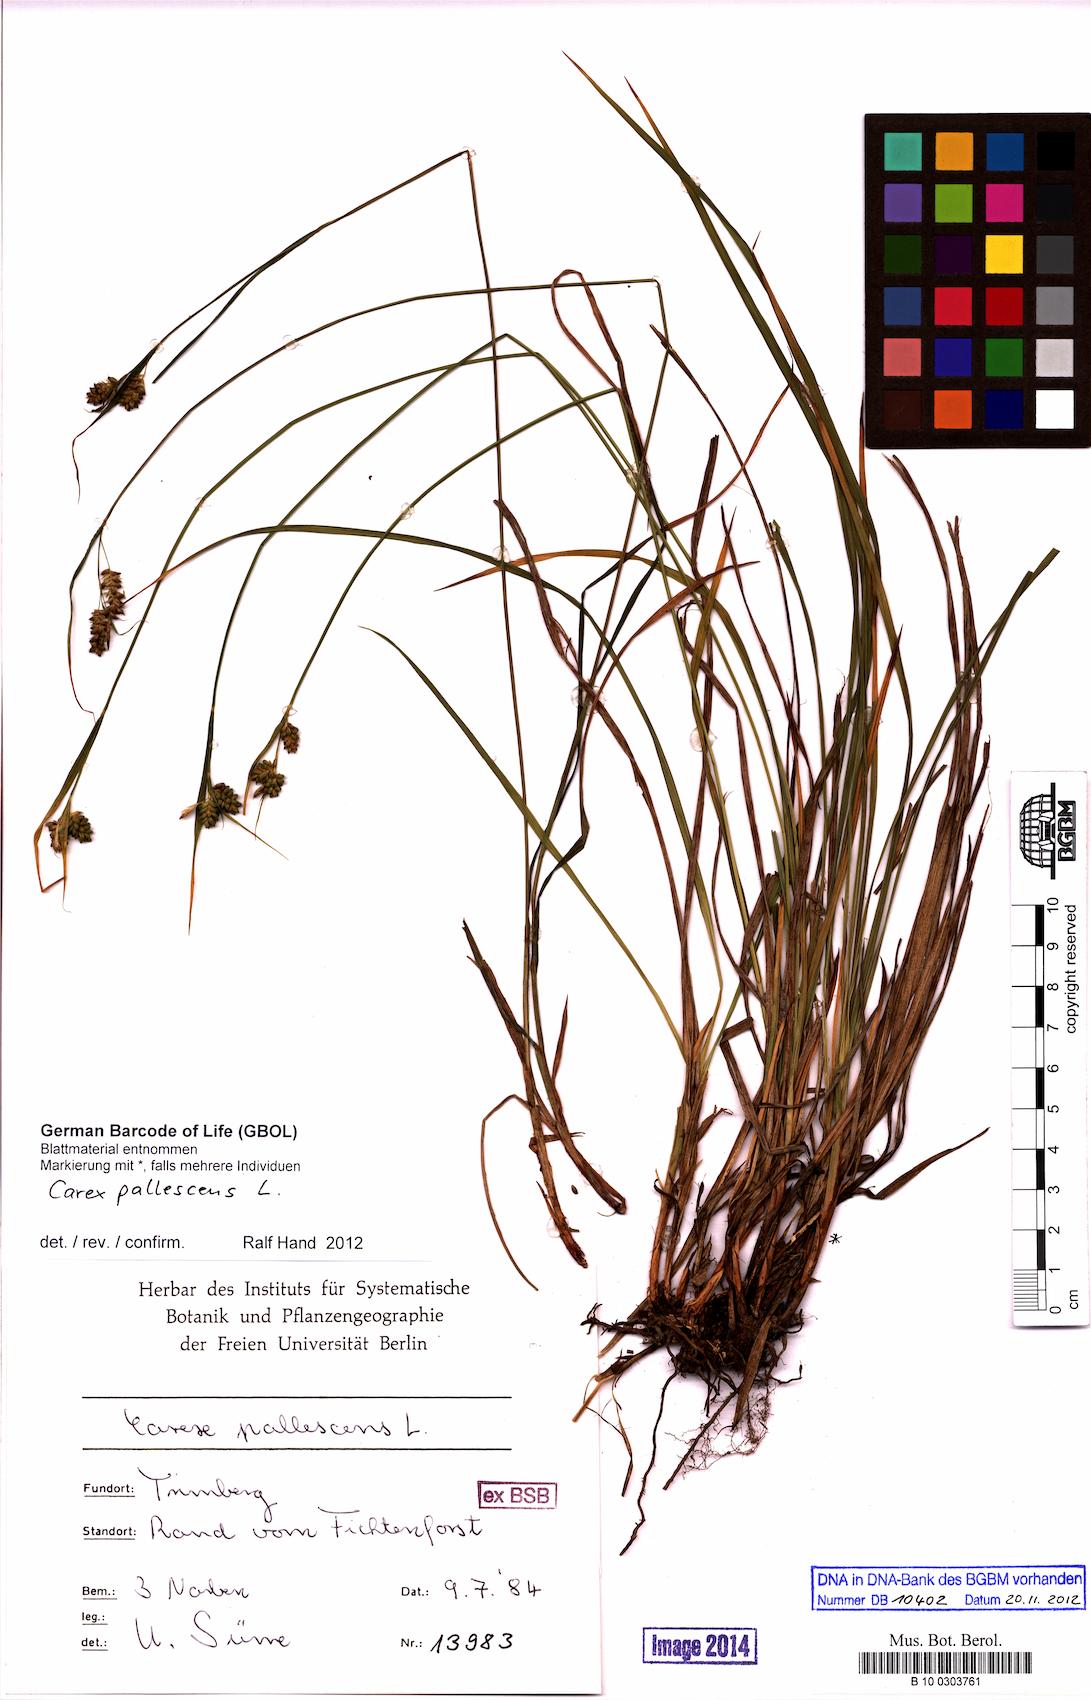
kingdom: Plantae
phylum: Tracheophyta
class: Liliopsida
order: Poales
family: Cyperaceae
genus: Carex
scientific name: Carex pallescens
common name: Pale sedge
